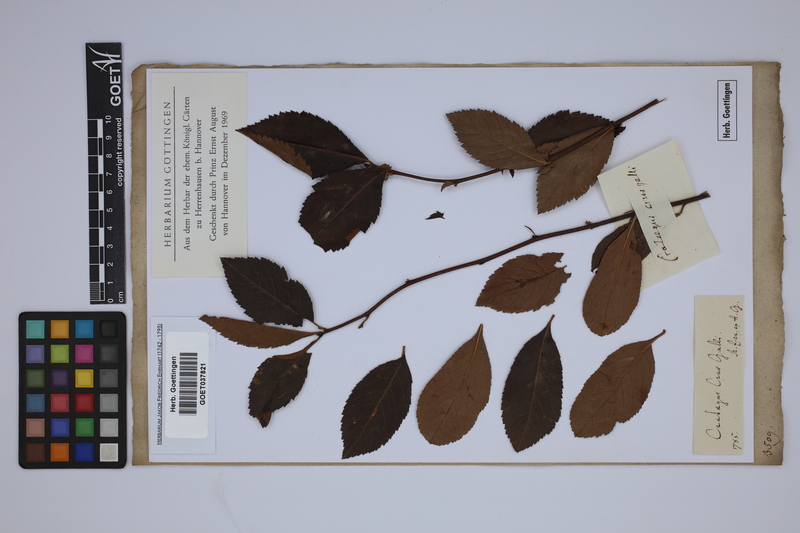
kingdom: Plantae
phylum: Tracheophyta
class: Magnoliopsida
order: Rosales
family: Rosaceae
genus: Crataegus
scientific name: Crataegus crus-galli
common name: Cockspurthorn
